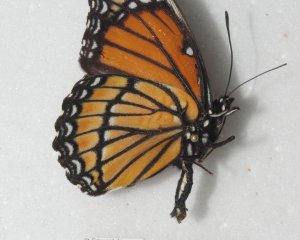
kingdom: Animalia
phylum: Arthropoda
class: Insecta
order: Lepidoptera
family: Nymphalidae
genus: Limenitis
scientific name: Limenitis archippus
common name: Viceroy
